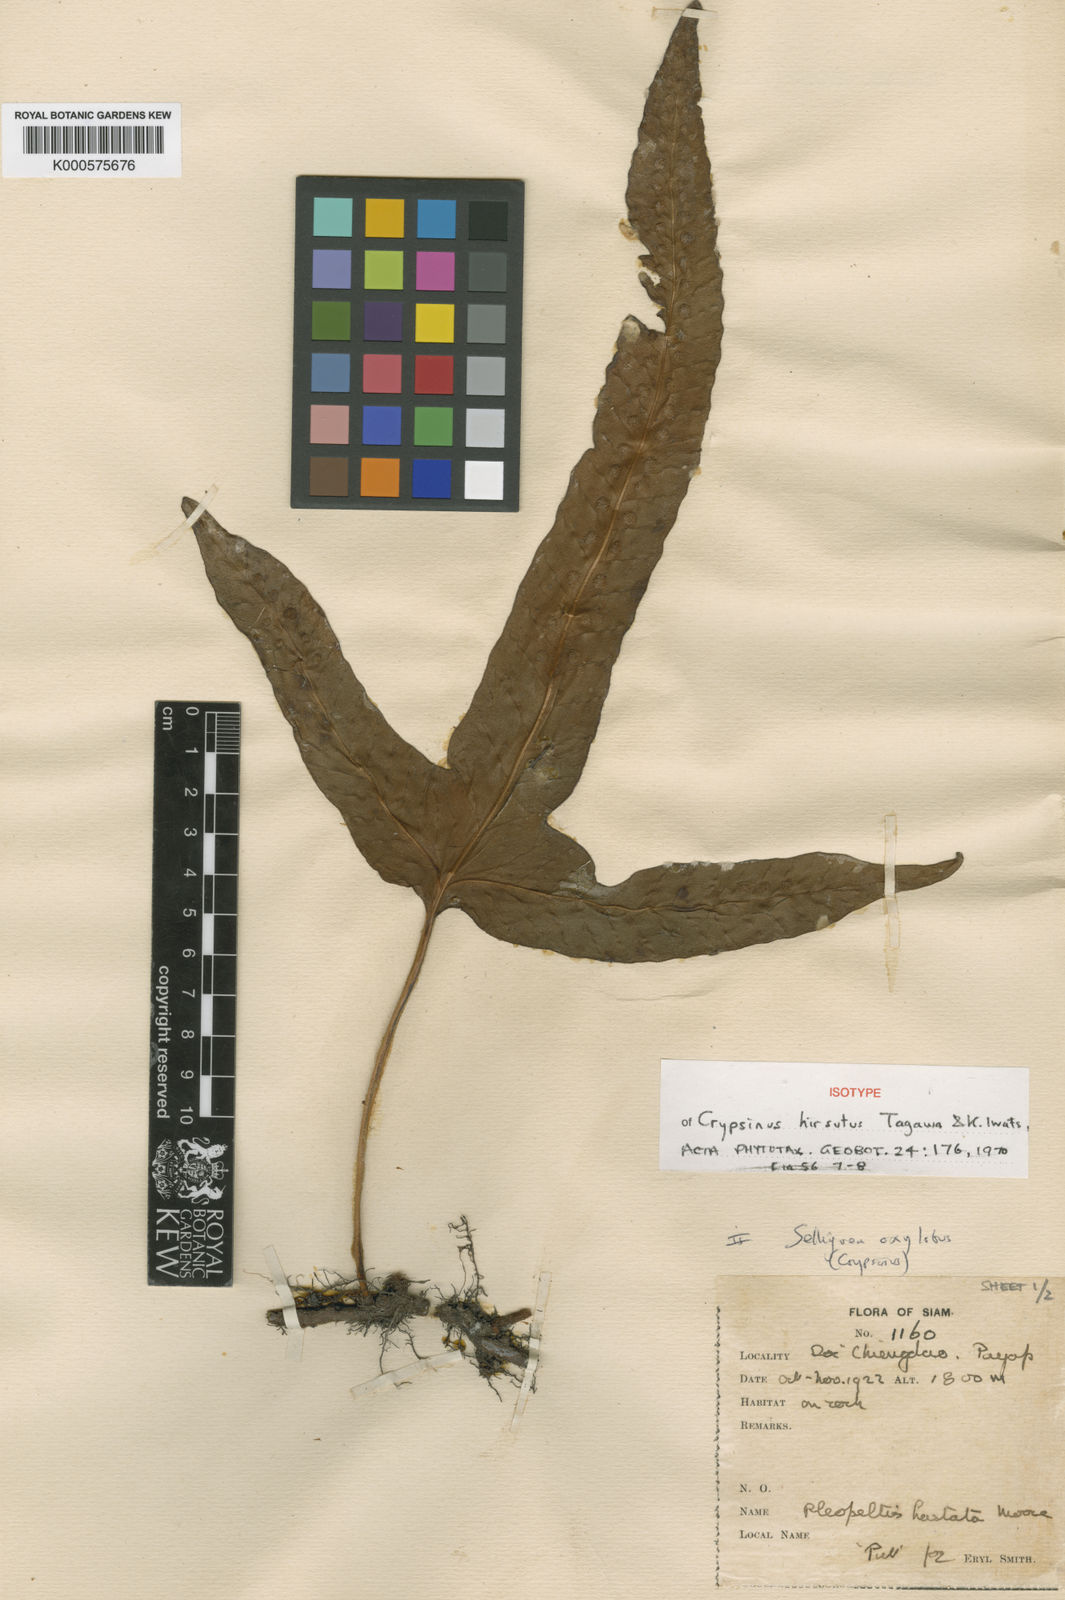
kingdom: Plantae
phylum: Tracheophyta
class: Polypodiopsida
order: Polypodiales
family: Polypodiaceae
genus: Selliguea
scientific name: Selliguea trisecta
